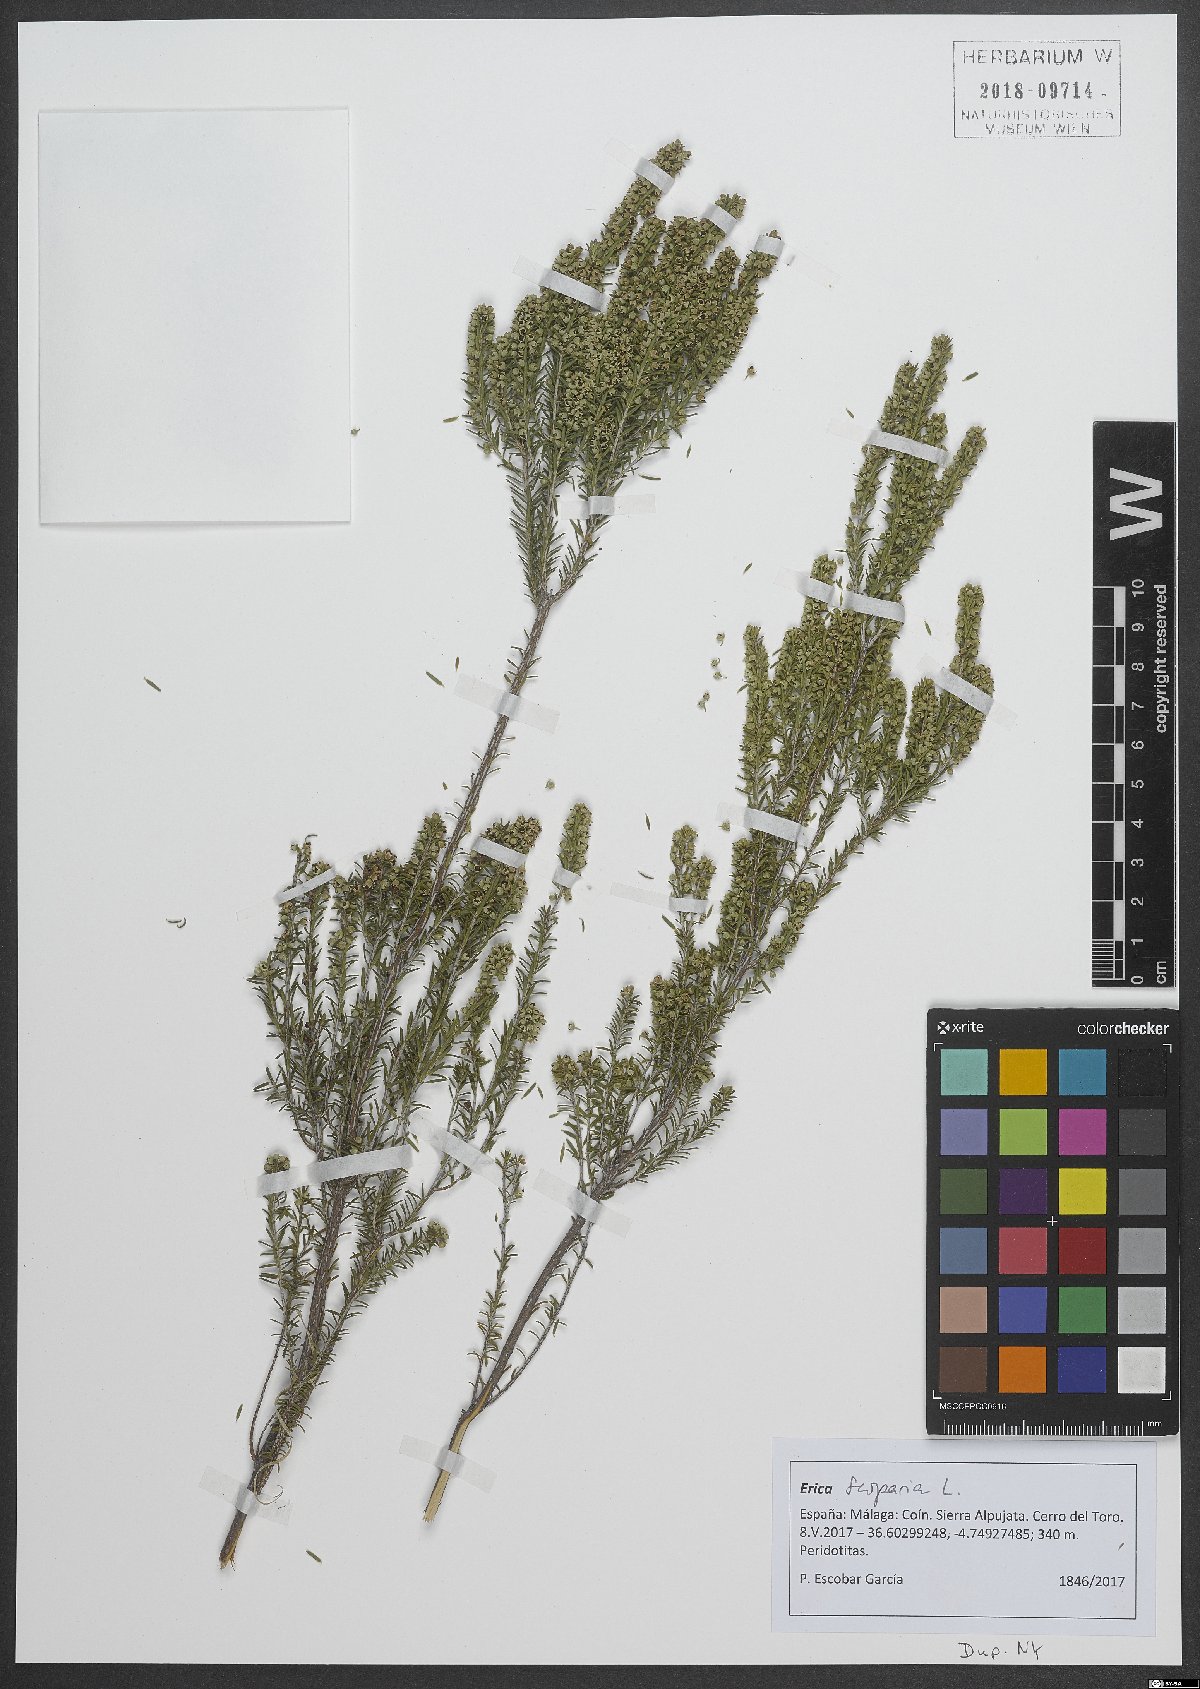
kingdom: Plantae
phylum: Tracheophyta
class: Magnoliopsida
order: Ericales
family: Ericaceae
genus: Erica
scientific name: Erica scoparia
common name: Green heather
